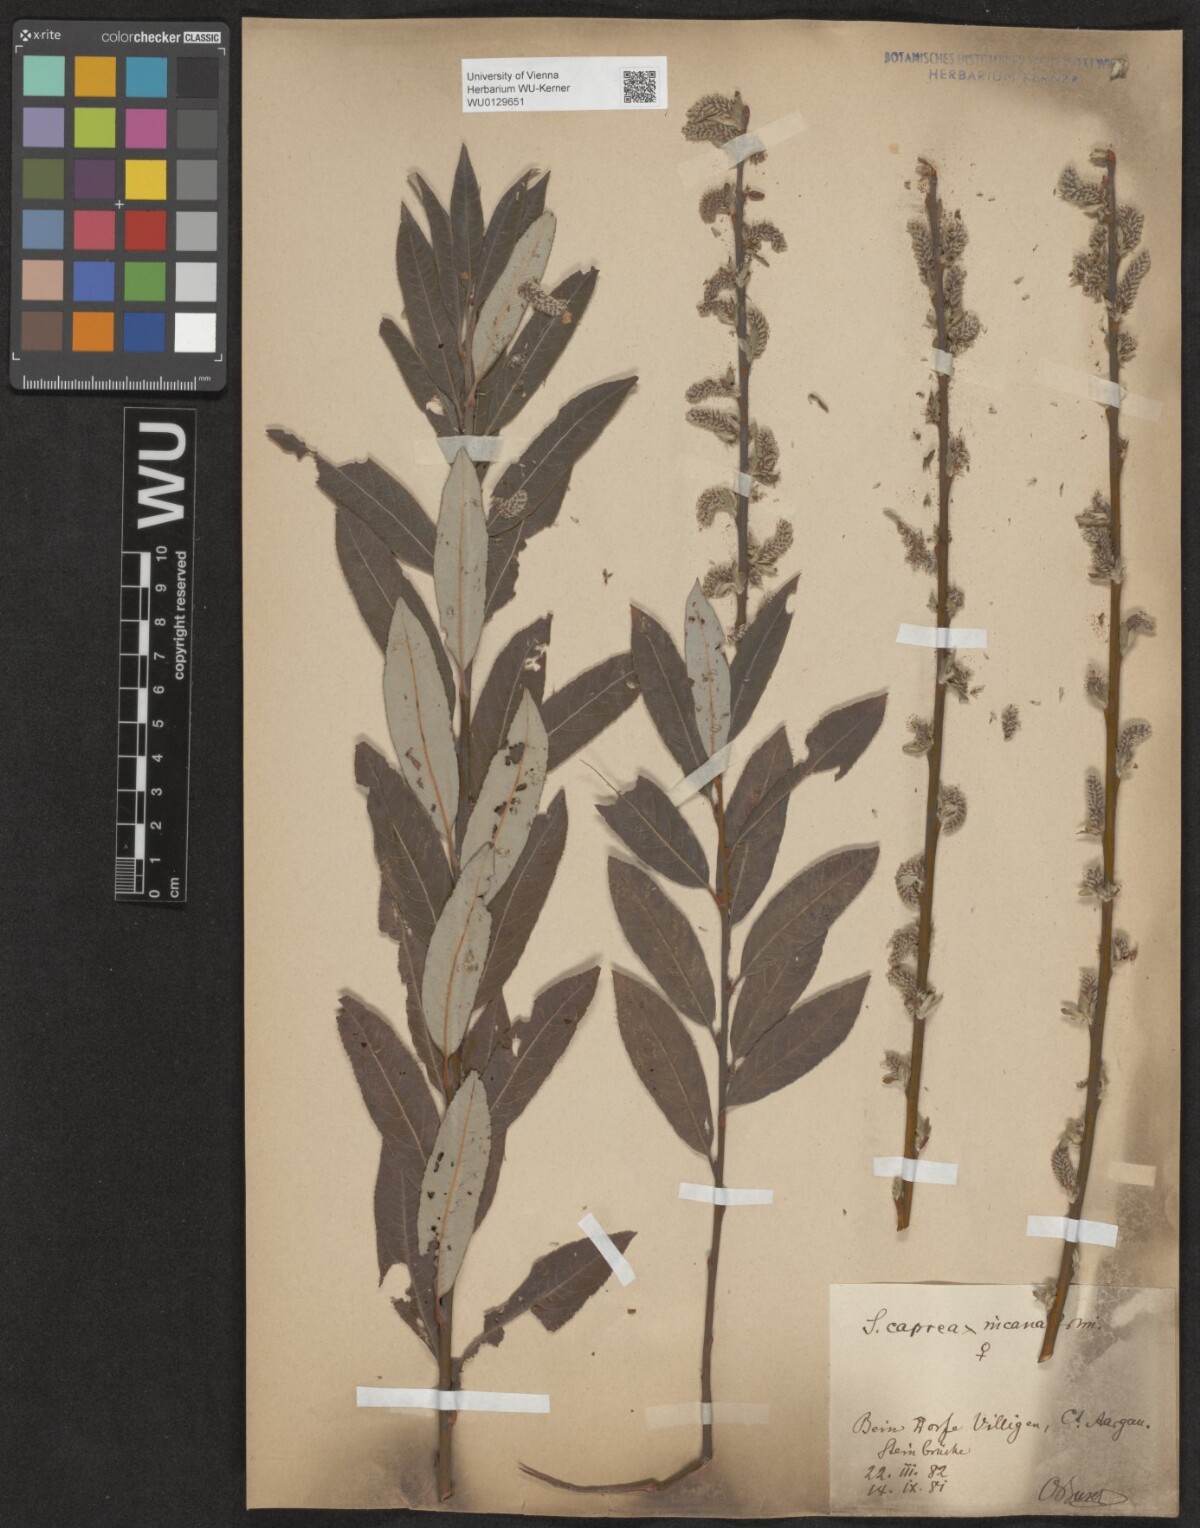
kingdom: Plantae
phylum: Tracheophyta
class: Magnoliopsida
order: Malpighiales
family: Salicaceae
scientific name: Salicaceae
